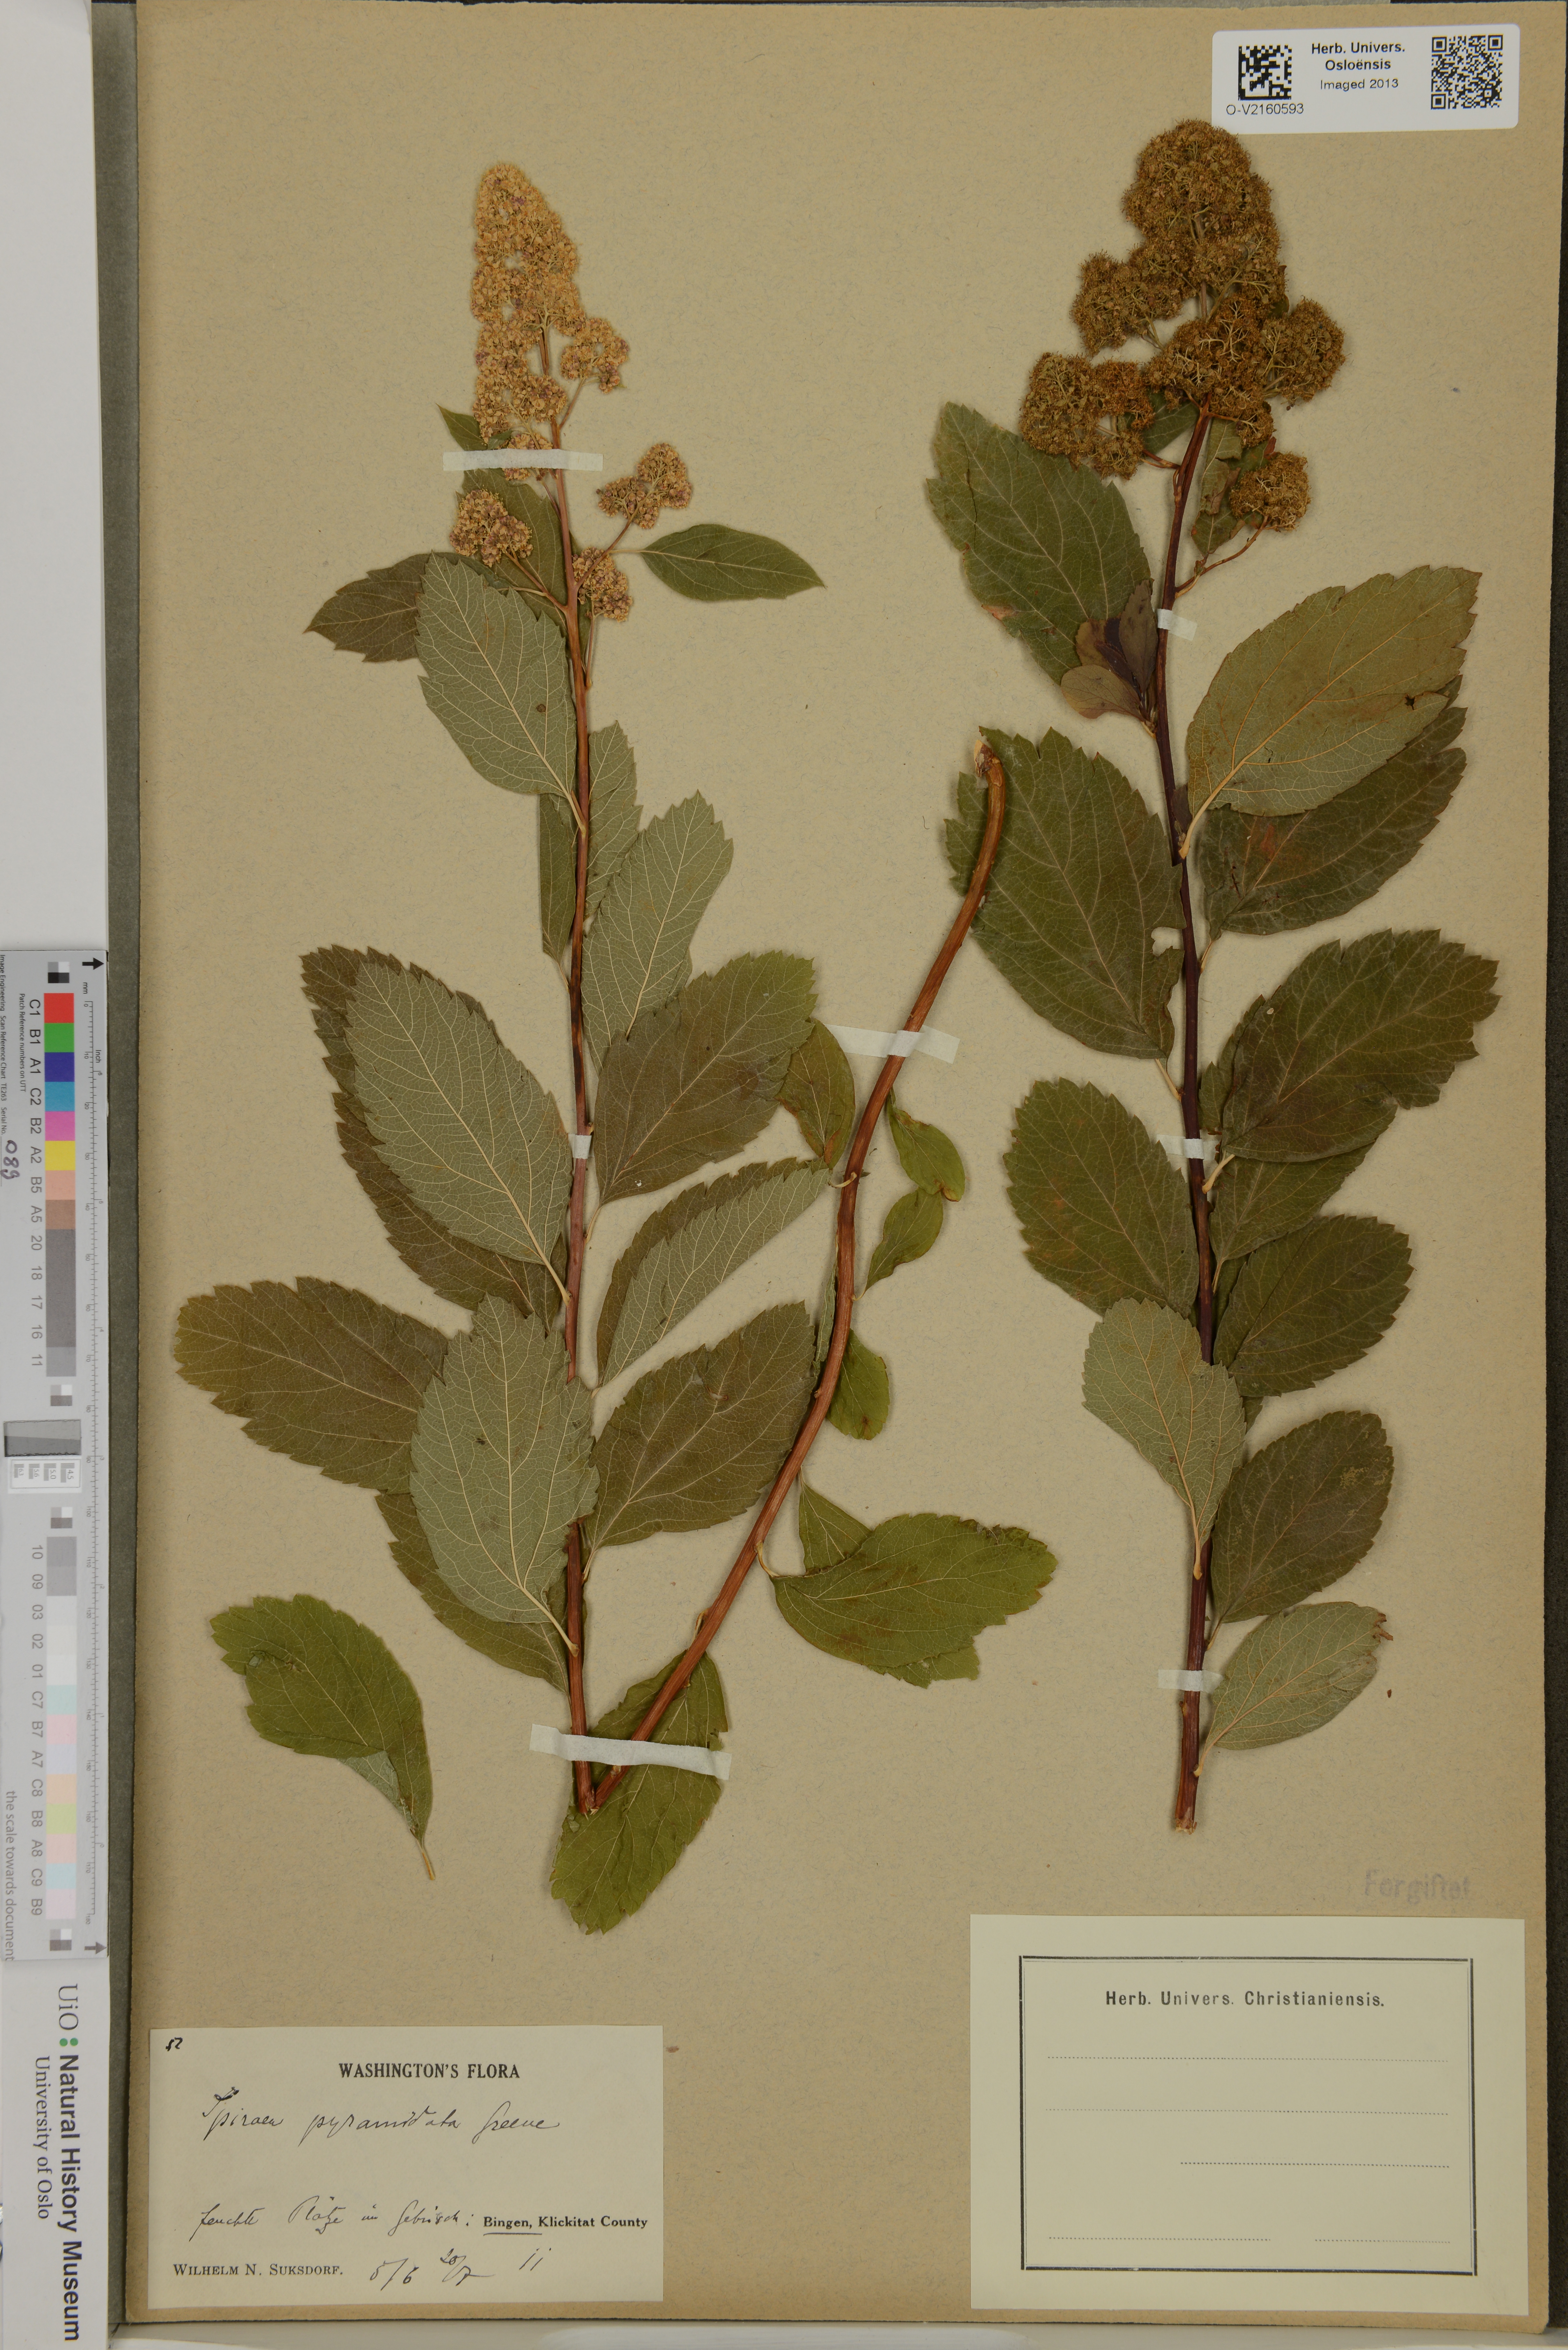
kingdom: Plantae
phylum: Tracheophyta
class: Magnoliopsida
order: Rosales
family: Rosaceae
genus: Spiraea
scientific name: Spiraea pyramidata
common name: Pyramid meadowsweet
